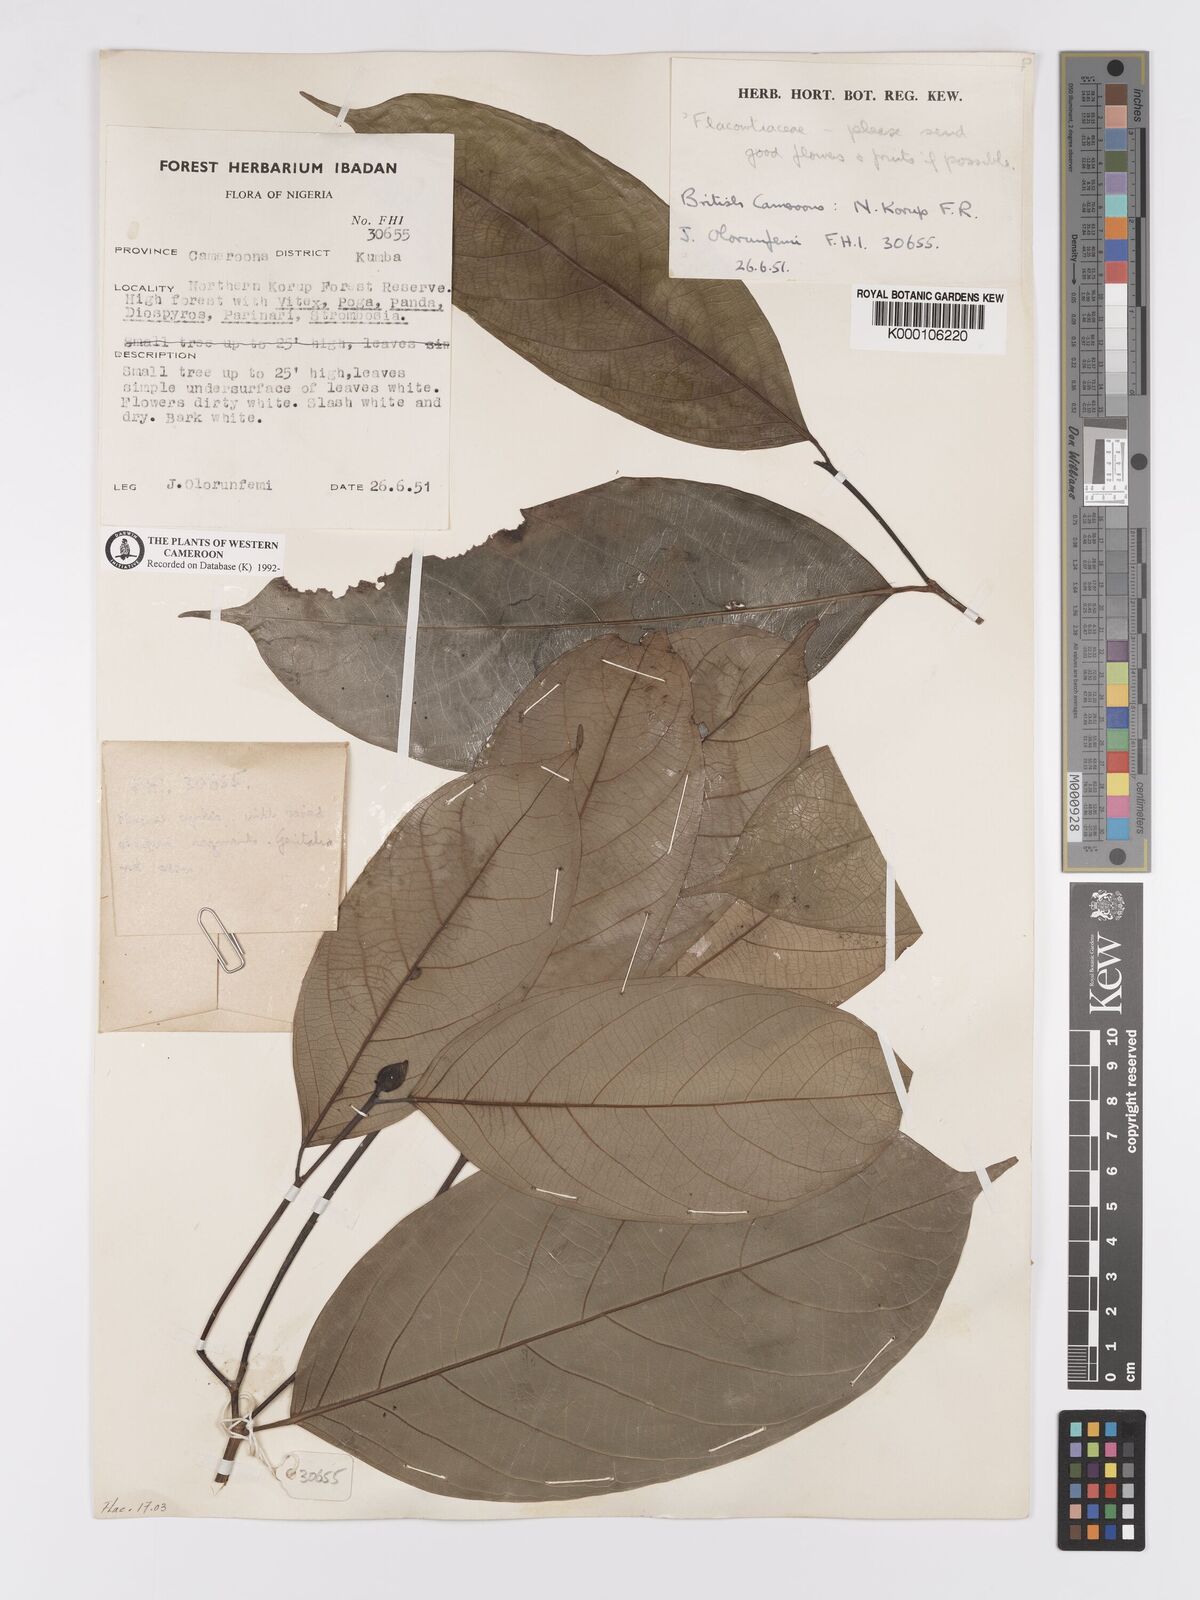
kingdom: Plantae
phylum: Tracheophyta
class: Magnoliopsida
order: Malpighiales
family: Flacourtiaceae
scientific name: Flacourtiaceae
